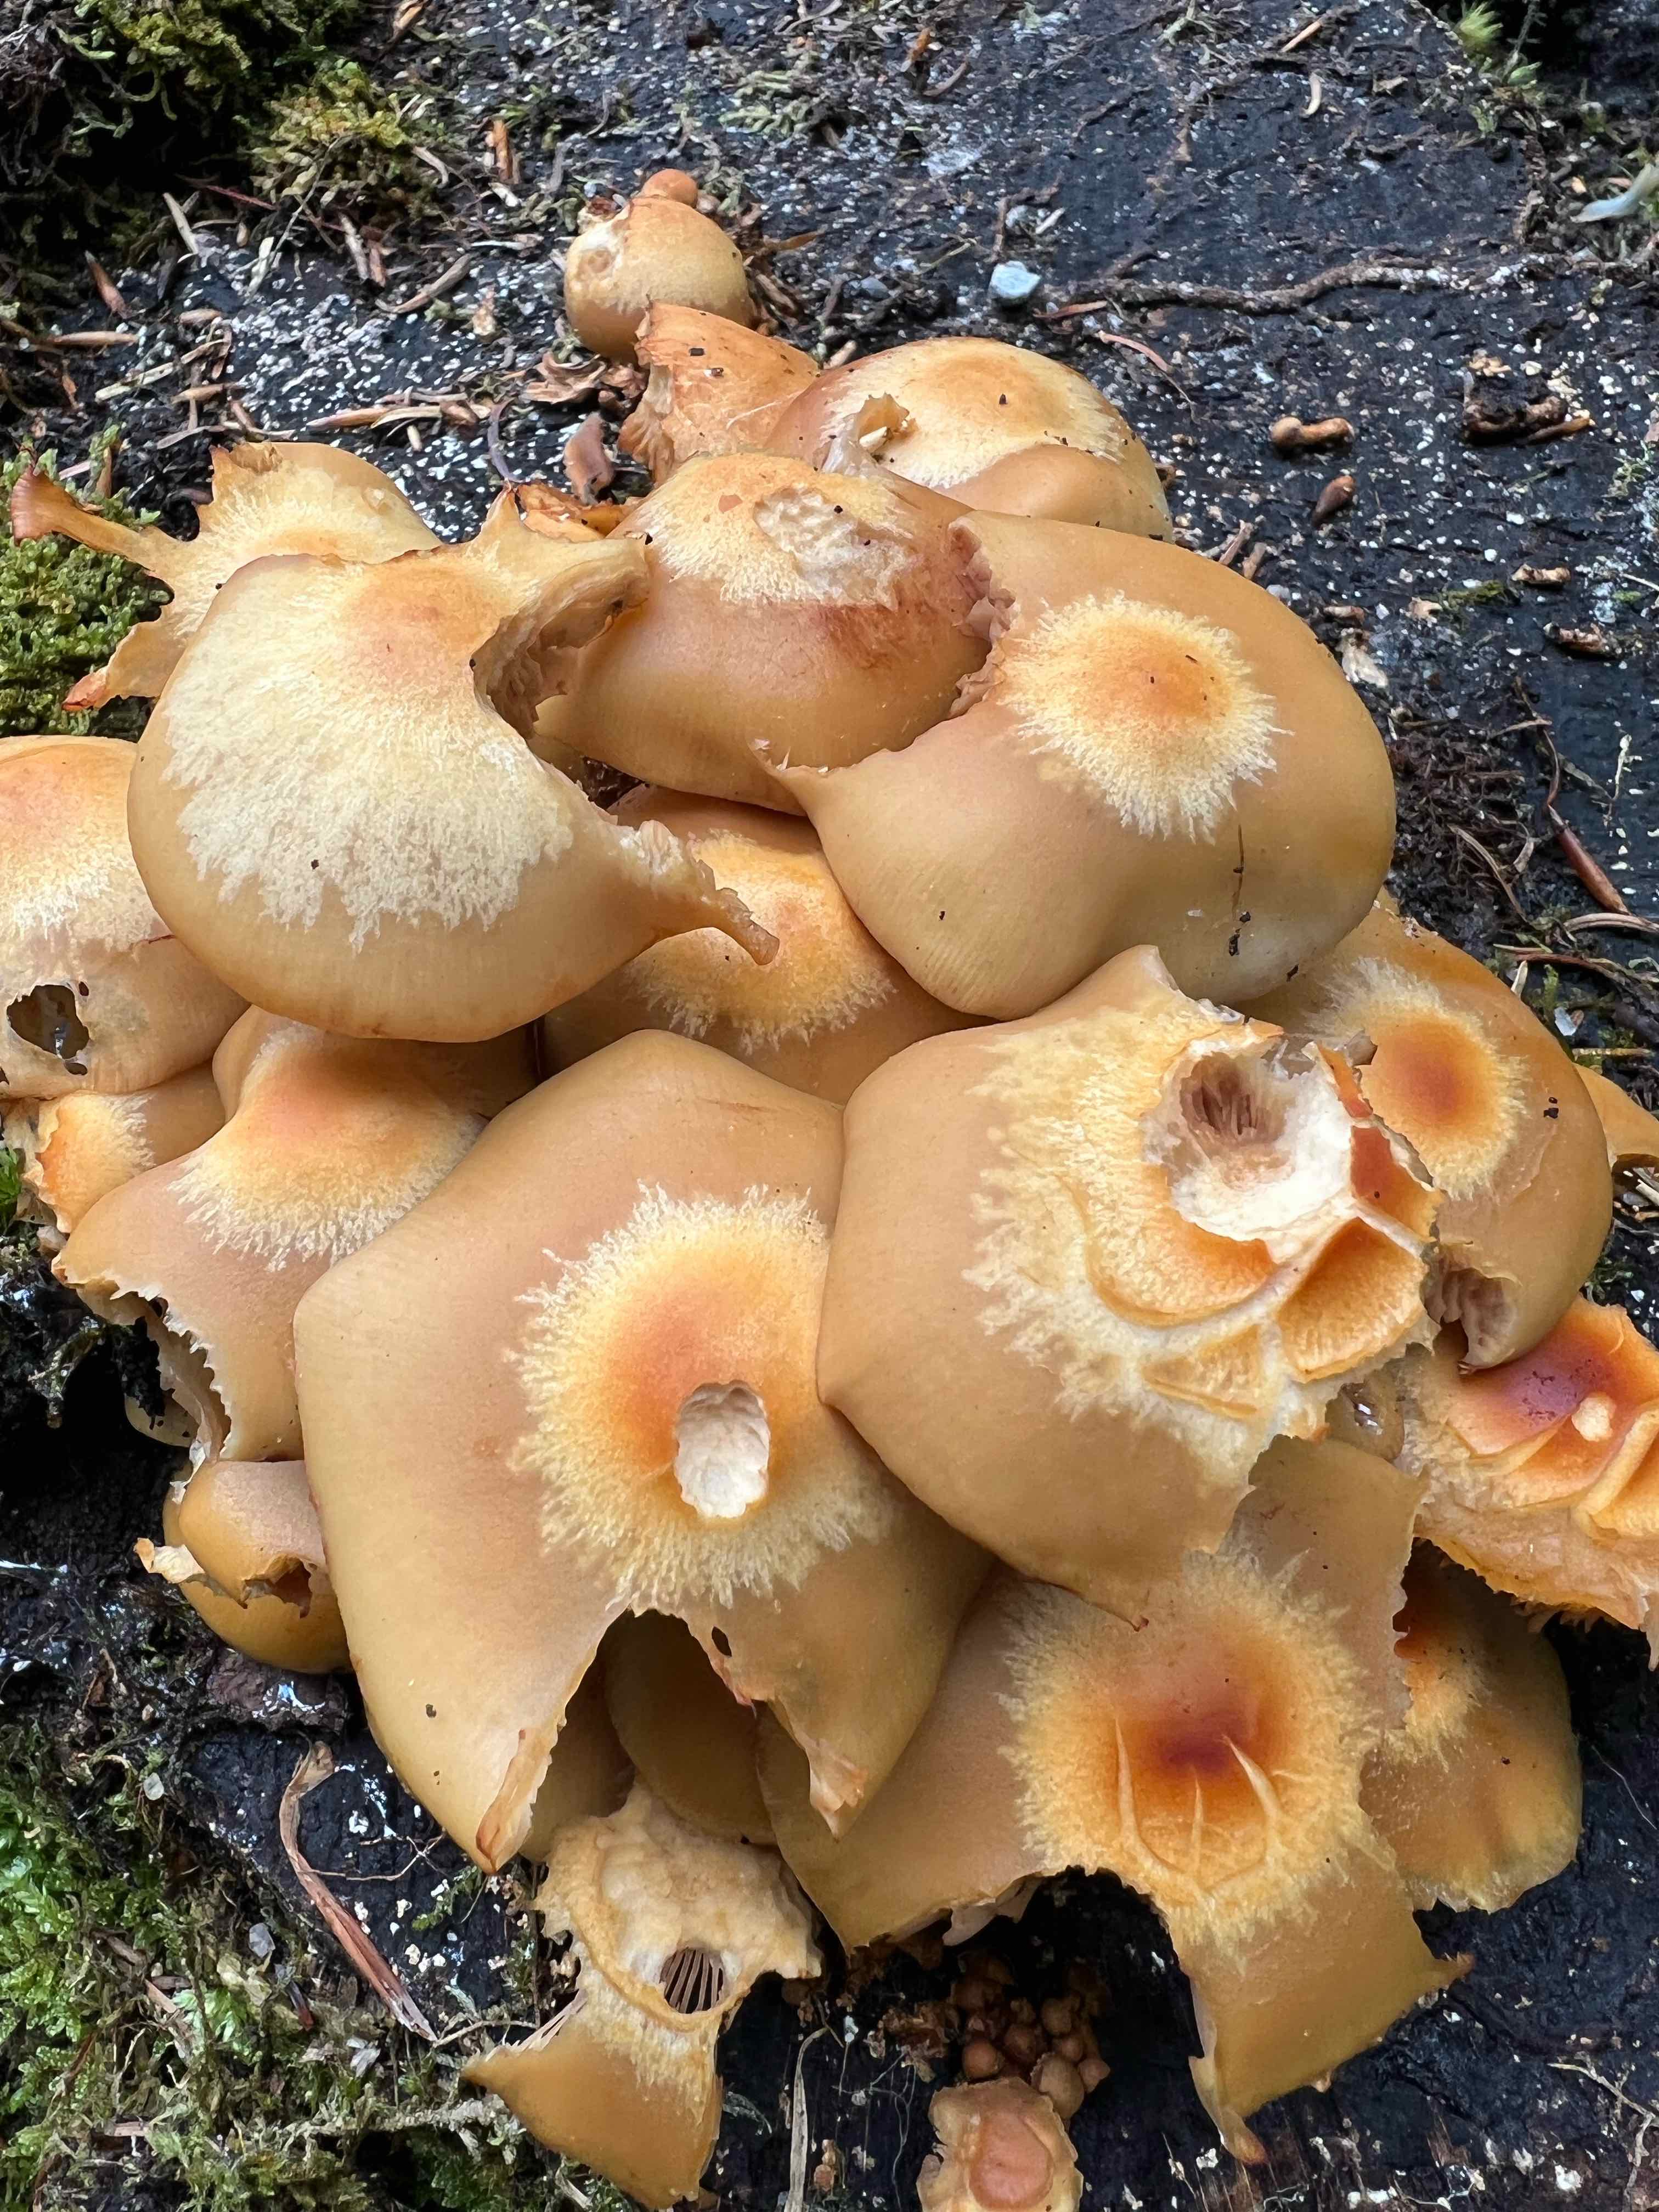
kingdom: Fungi
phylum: Basidiomycota
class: Agaricomycetes
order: Agaricales
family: Strophariaceae
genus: Kuehneromyces
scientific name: Kuehneromyces mutabilis
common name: foranderlig skælhat
